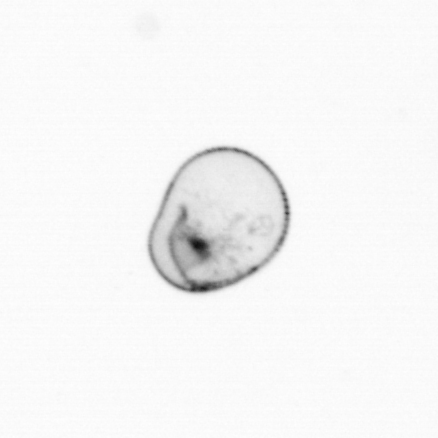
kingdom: Chromista
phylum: Myzozoa
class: Dinophyceae
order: Noctilucales
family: Noctilucaceae
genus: Noctiluca
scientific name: Noctiluca scintillans
